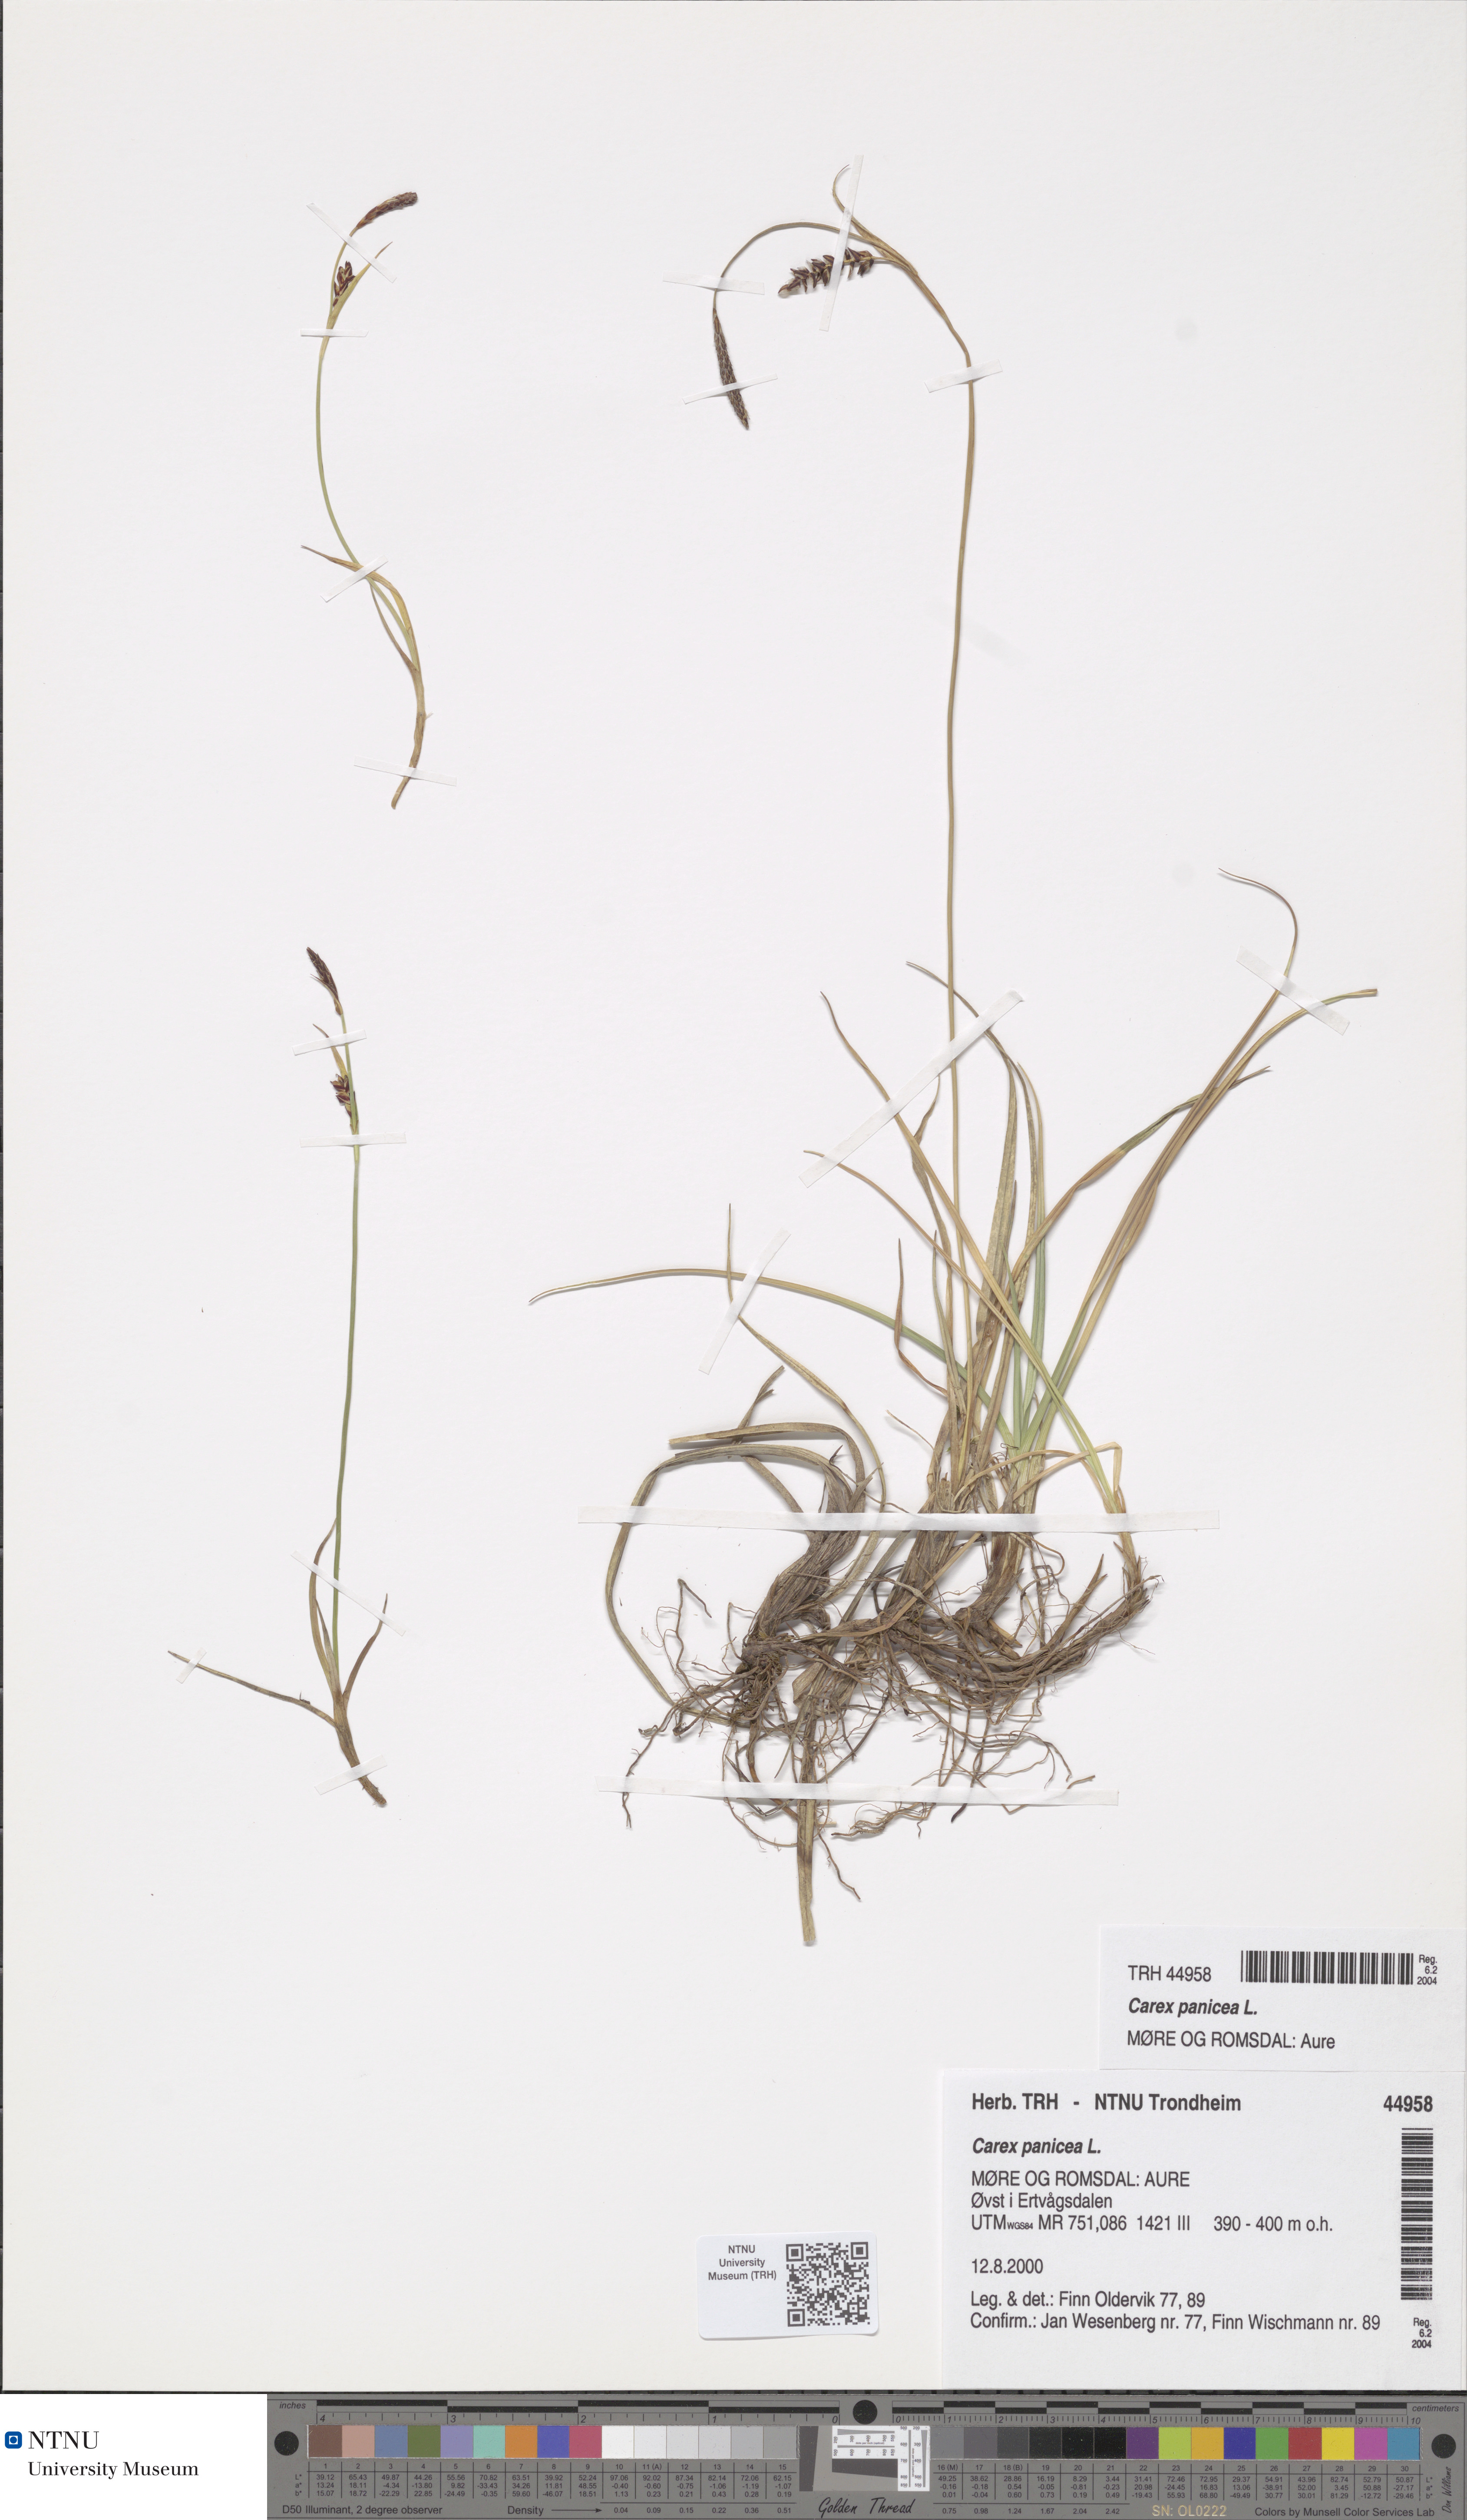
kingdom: Plantae
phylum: Tracheophyta
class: Liliopsida
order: Poales
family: Cyperaceae
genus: Carex
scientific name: Carex panicea
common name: Carnation sedge
